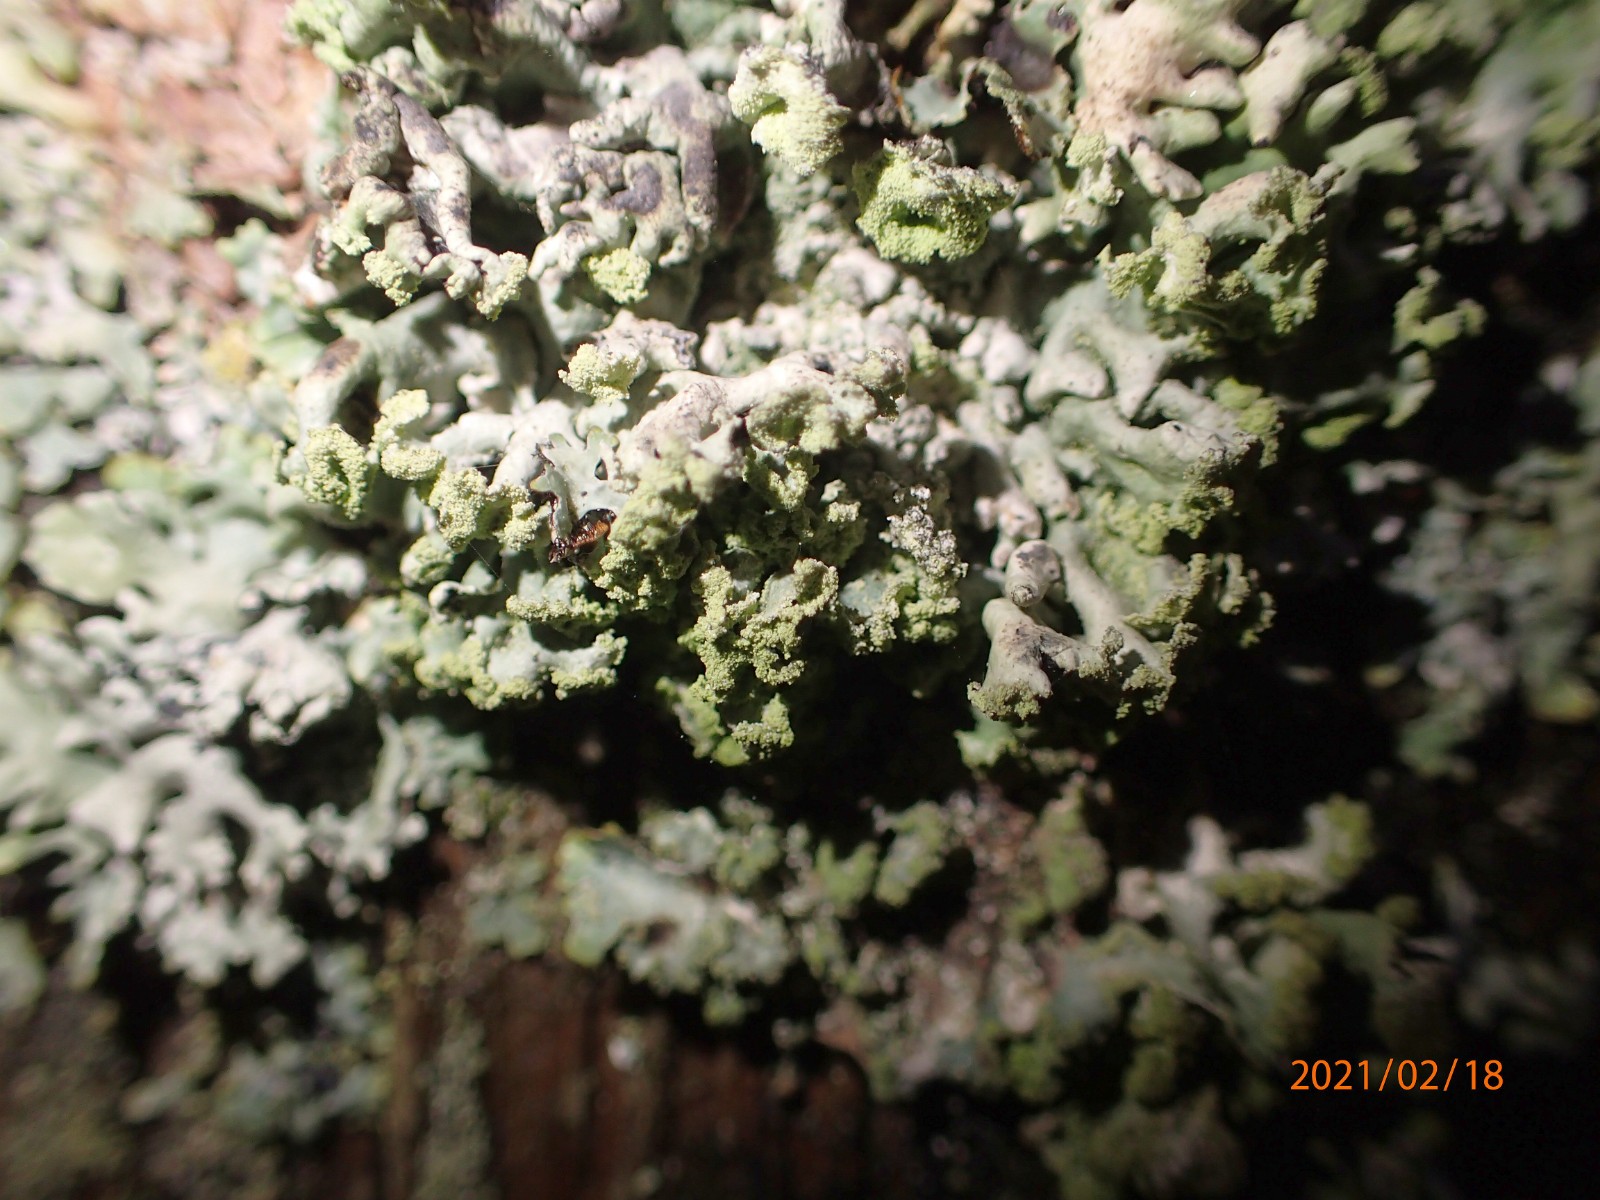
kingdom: Fungi
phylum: Ascomycota
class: Lecanoromycetes
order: Lecanorales
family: Parmeliaceae
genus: Hypogymnia
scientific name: Hypogymnia physodes
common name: almindelig kvistlav
